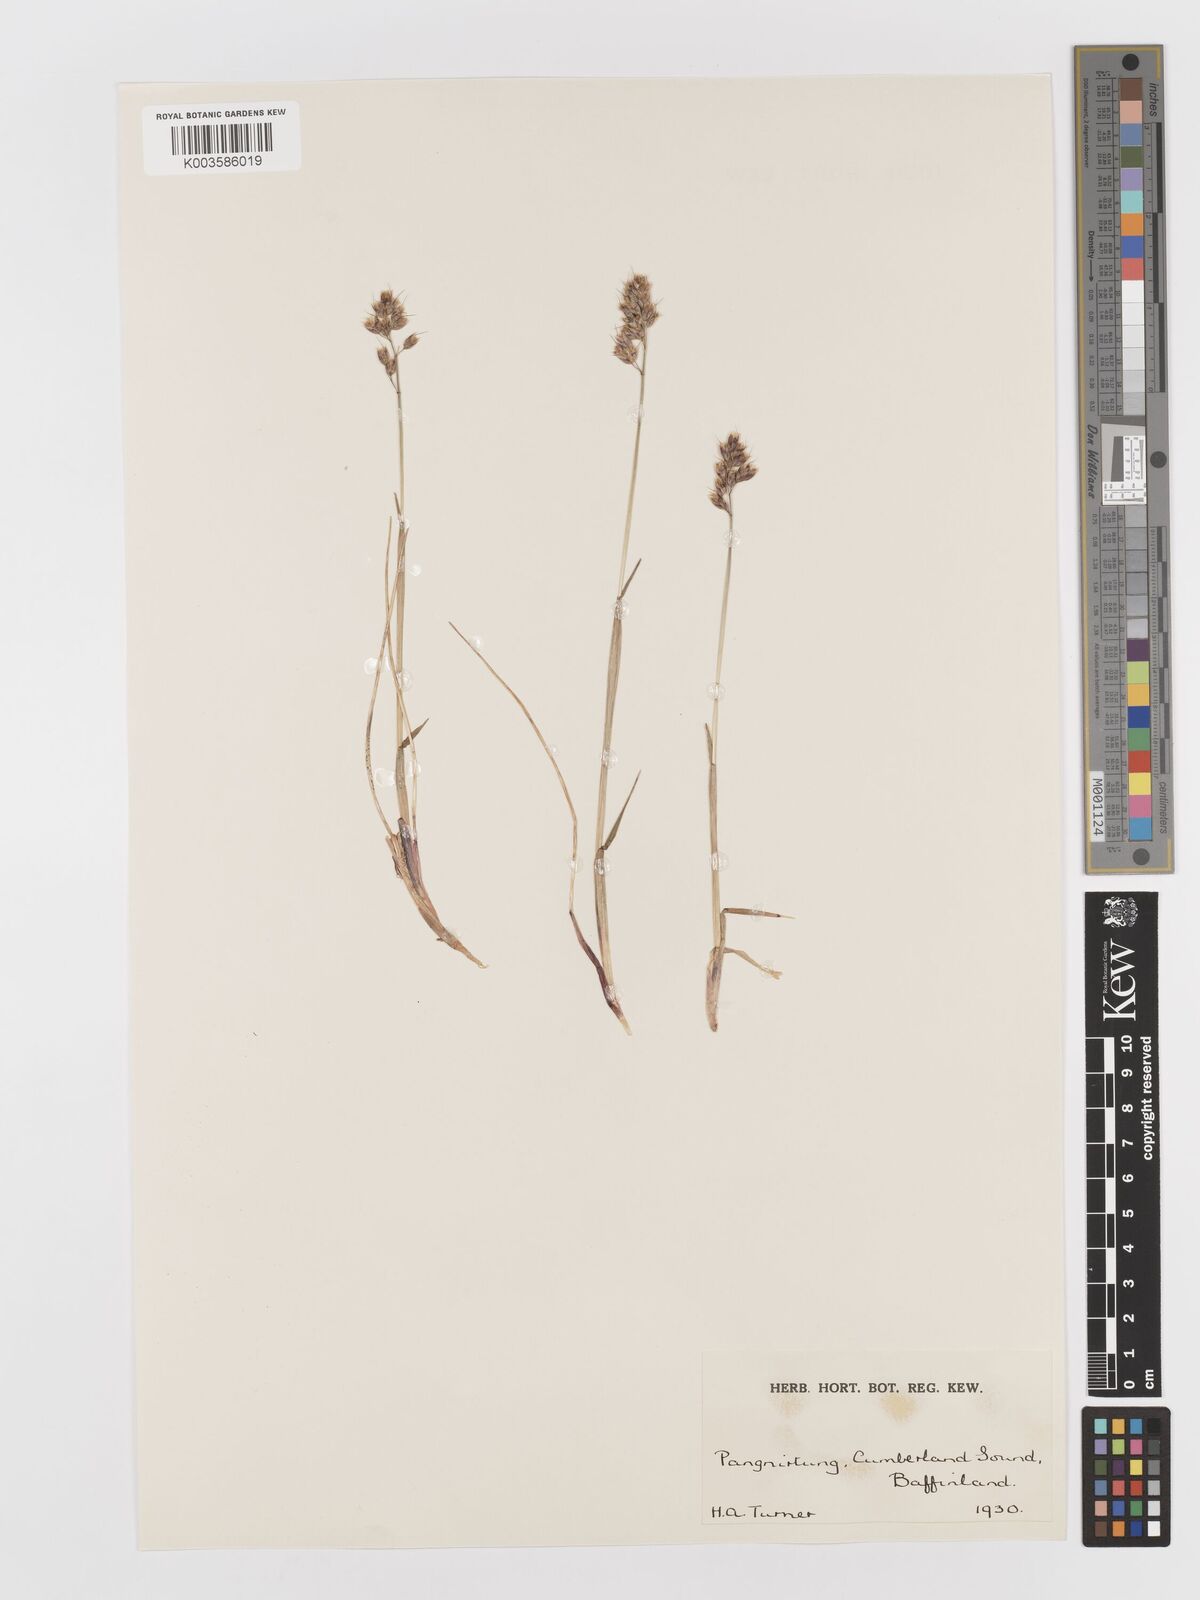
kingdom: Plantae
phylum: Tracheophyta
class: Liliopsida
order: Poales
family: Poaceae
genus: Anthoxanthum
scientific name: Anthoxanthum monticola
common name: Alpine sweetgrass
